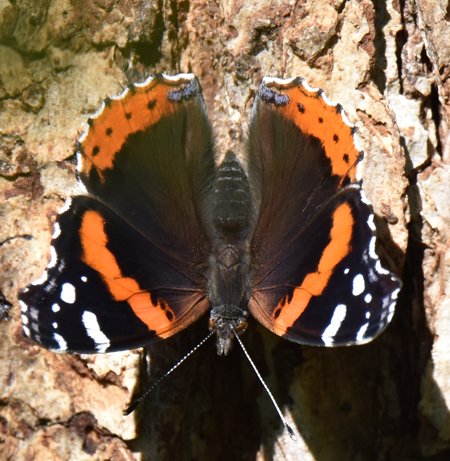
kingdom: Animalia
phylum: Arthropoda
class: Insecta
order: Lepidoptera
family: Nymphalidae
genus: Vanessa
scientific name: Vanessa atalanta
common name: Red Admiral
